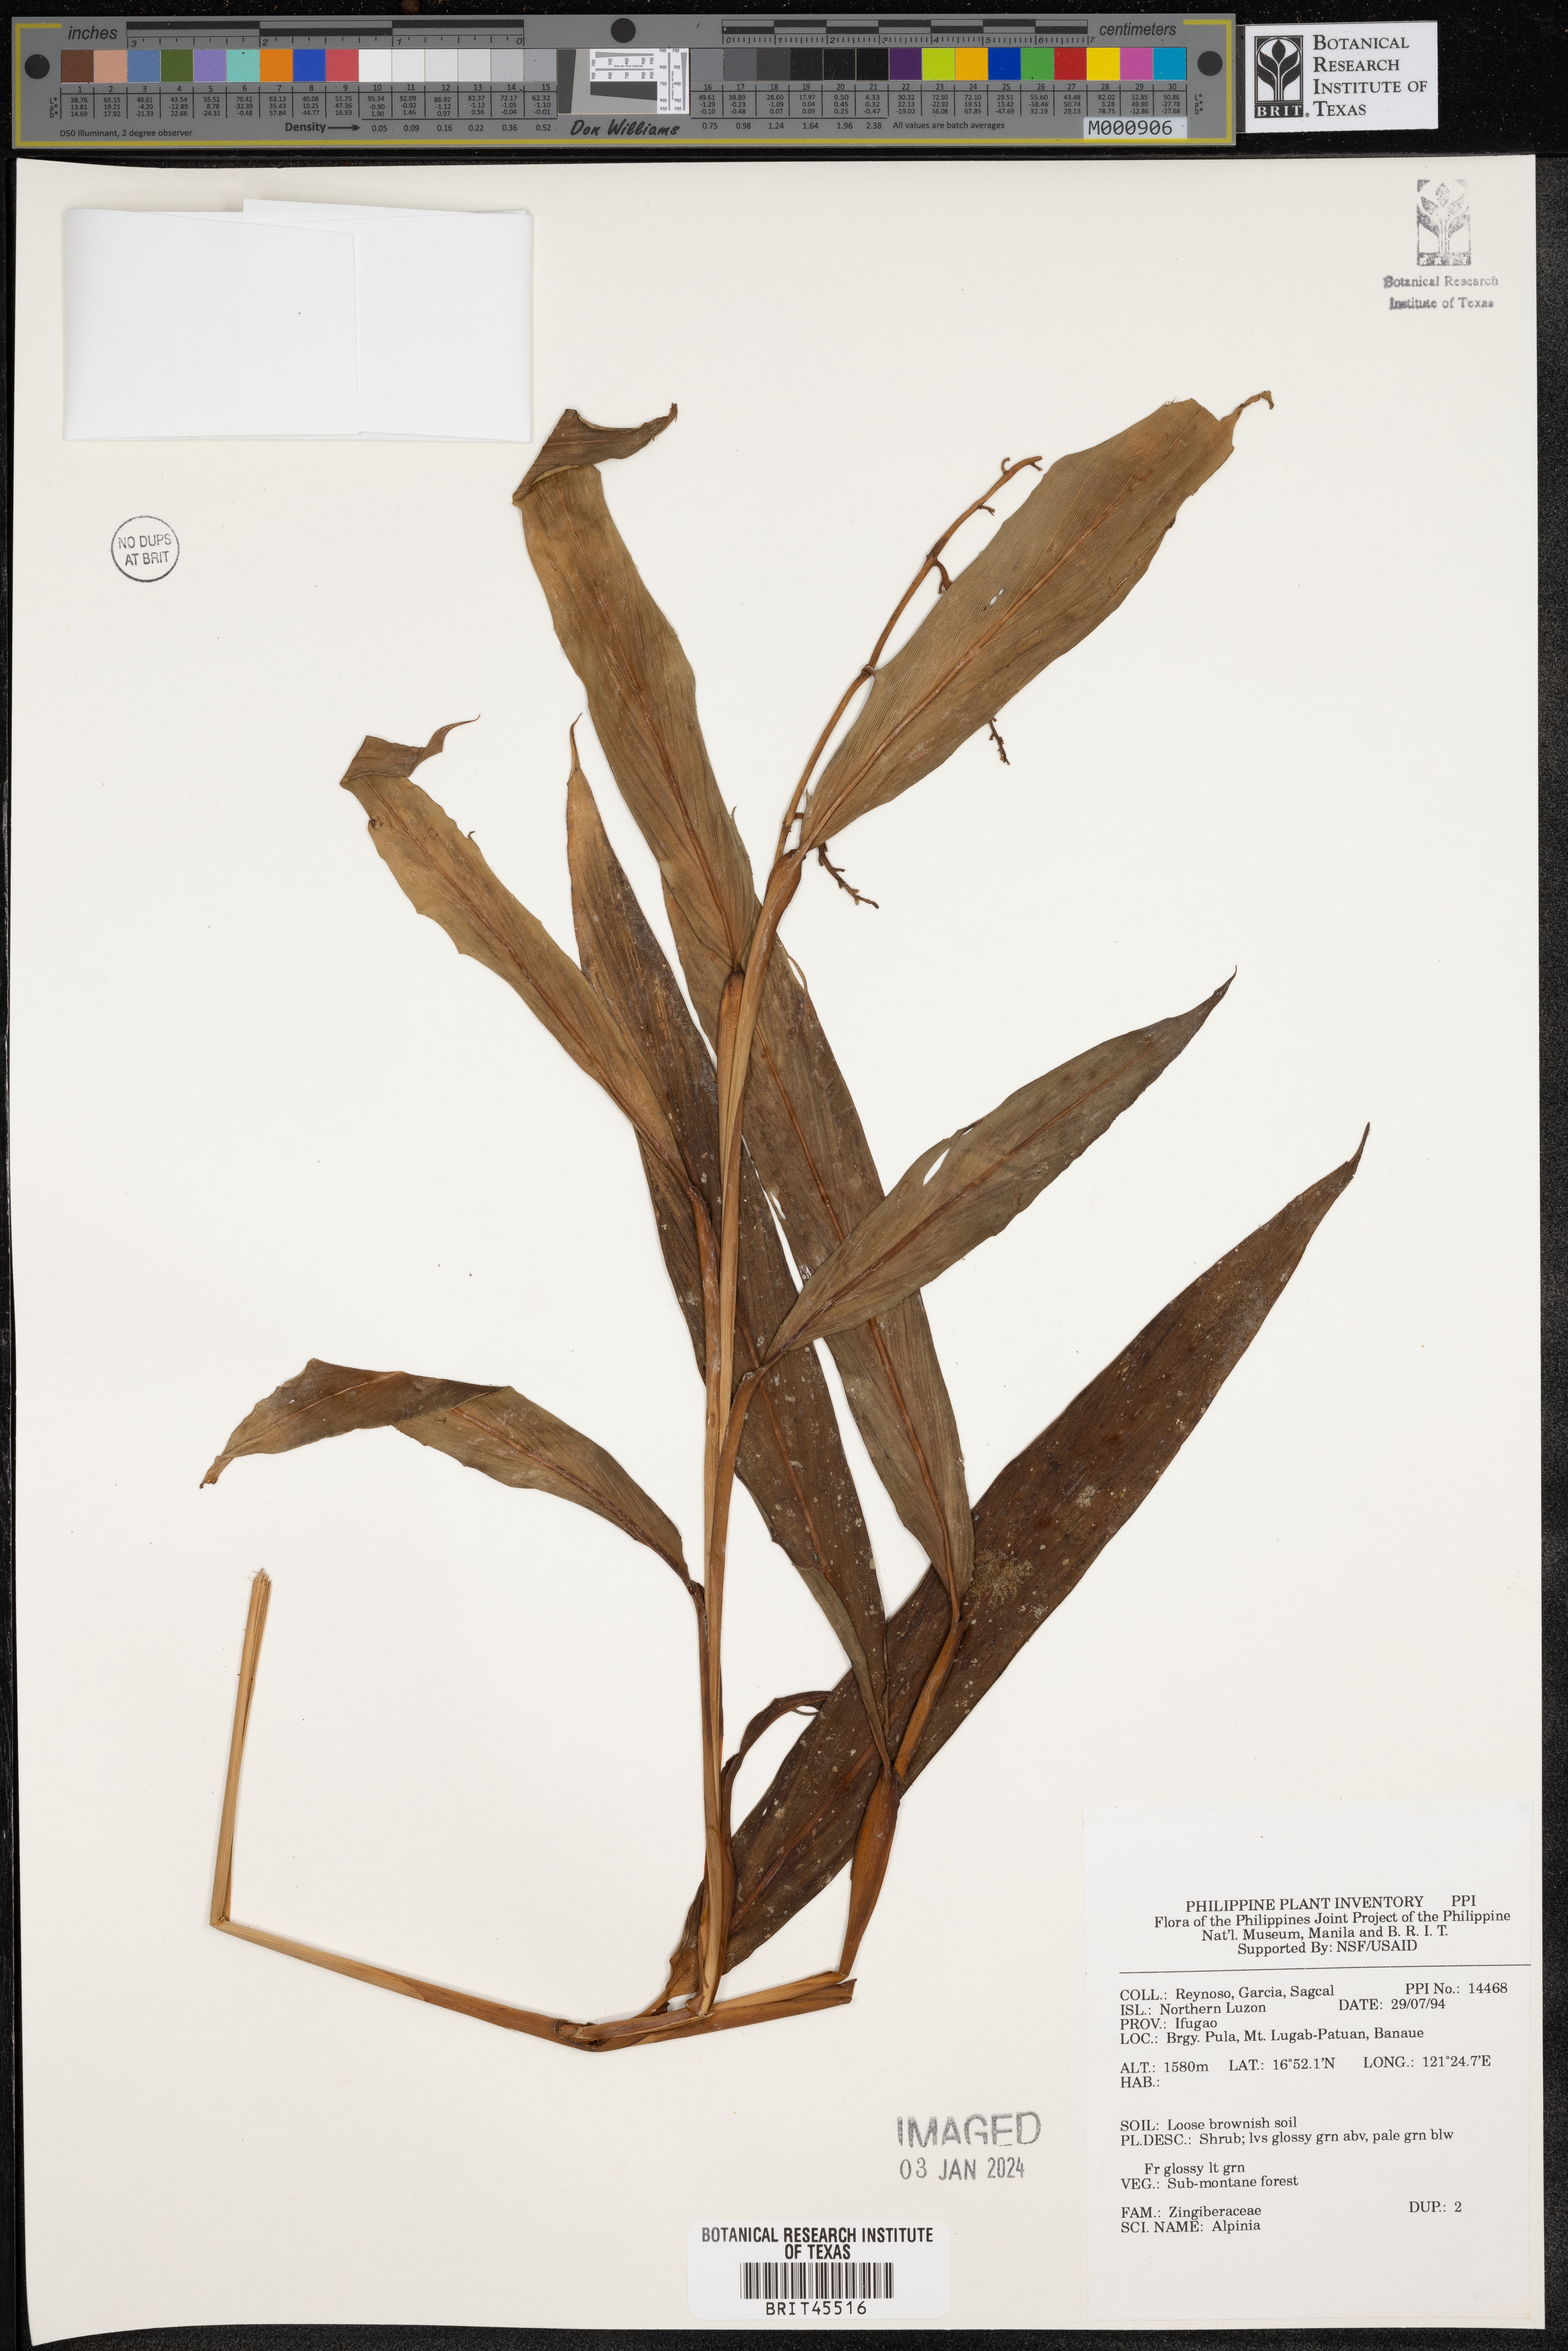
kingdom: Plantae
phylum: Tracheophyta
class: Liliopsida
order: Zingiberales
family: Zingiberaceae
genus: Alpinia
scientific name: Alpinia
